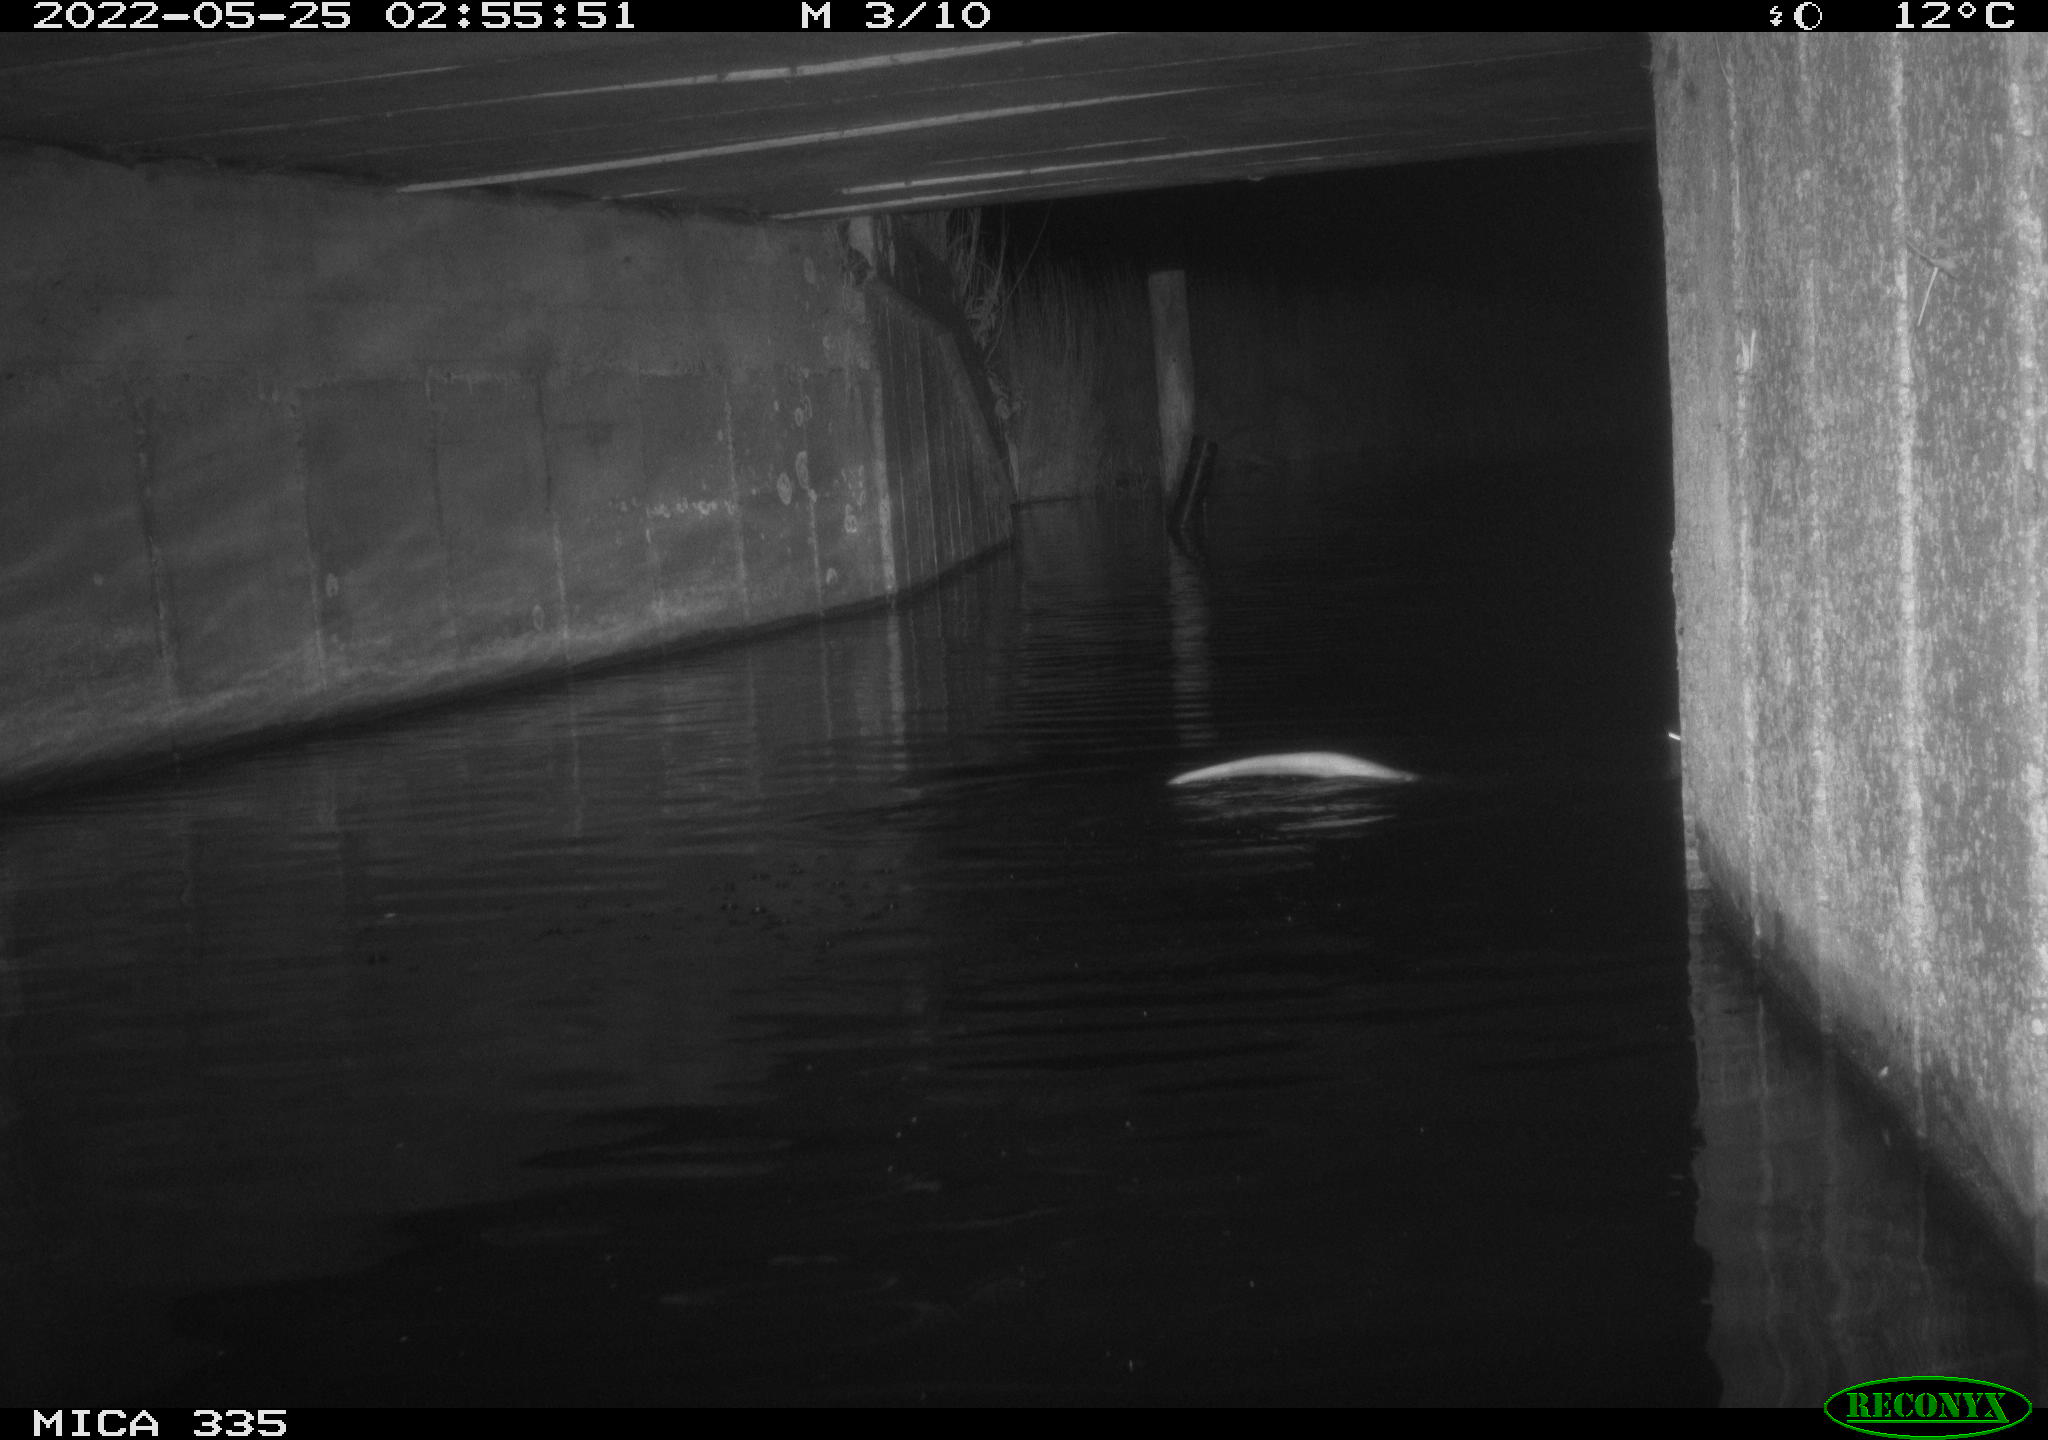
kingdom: Animalia
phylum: Chordata
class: Mammalia
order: Carnivora
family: Mustelidae
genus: Lutra
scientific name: Lutra lutra
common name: European otter
